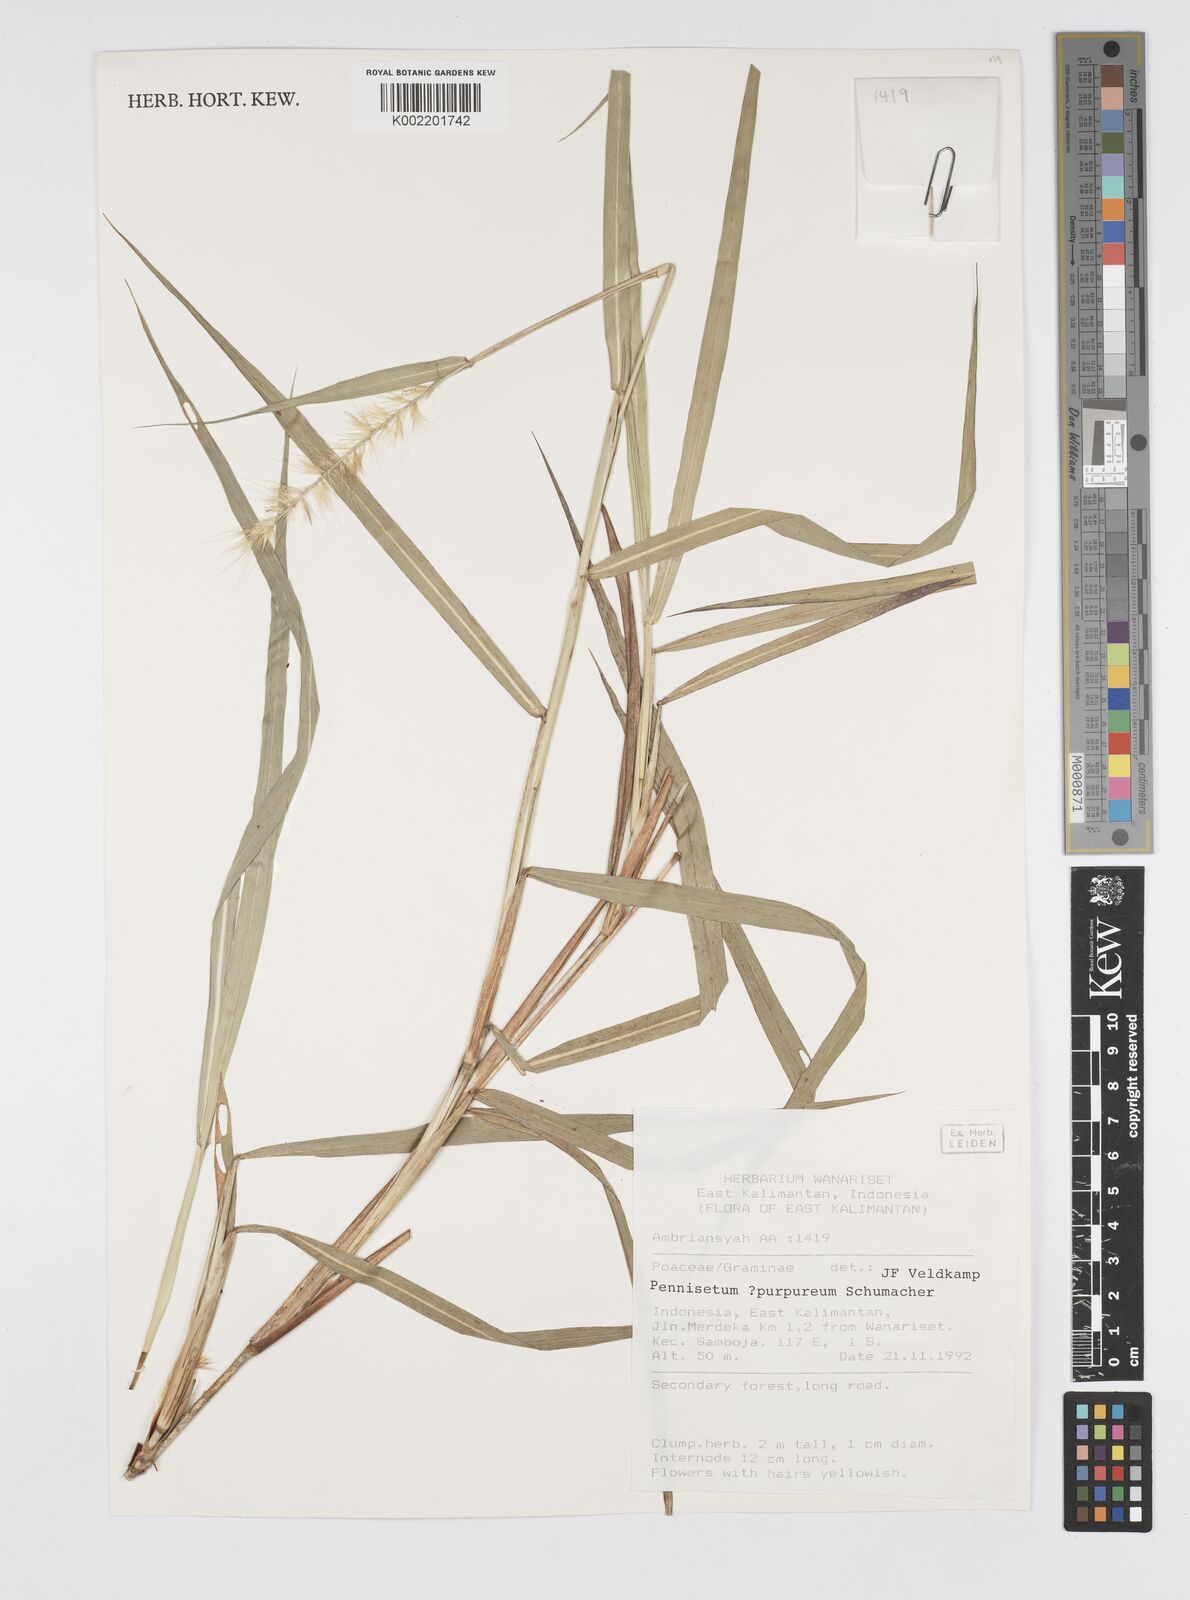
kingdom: Plantae
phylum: Tracheophyta
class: Liliopsida
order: Poales
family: Poaceae
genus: Cenchrus
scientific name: Cenchrus purpureus
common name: Elephant grass
